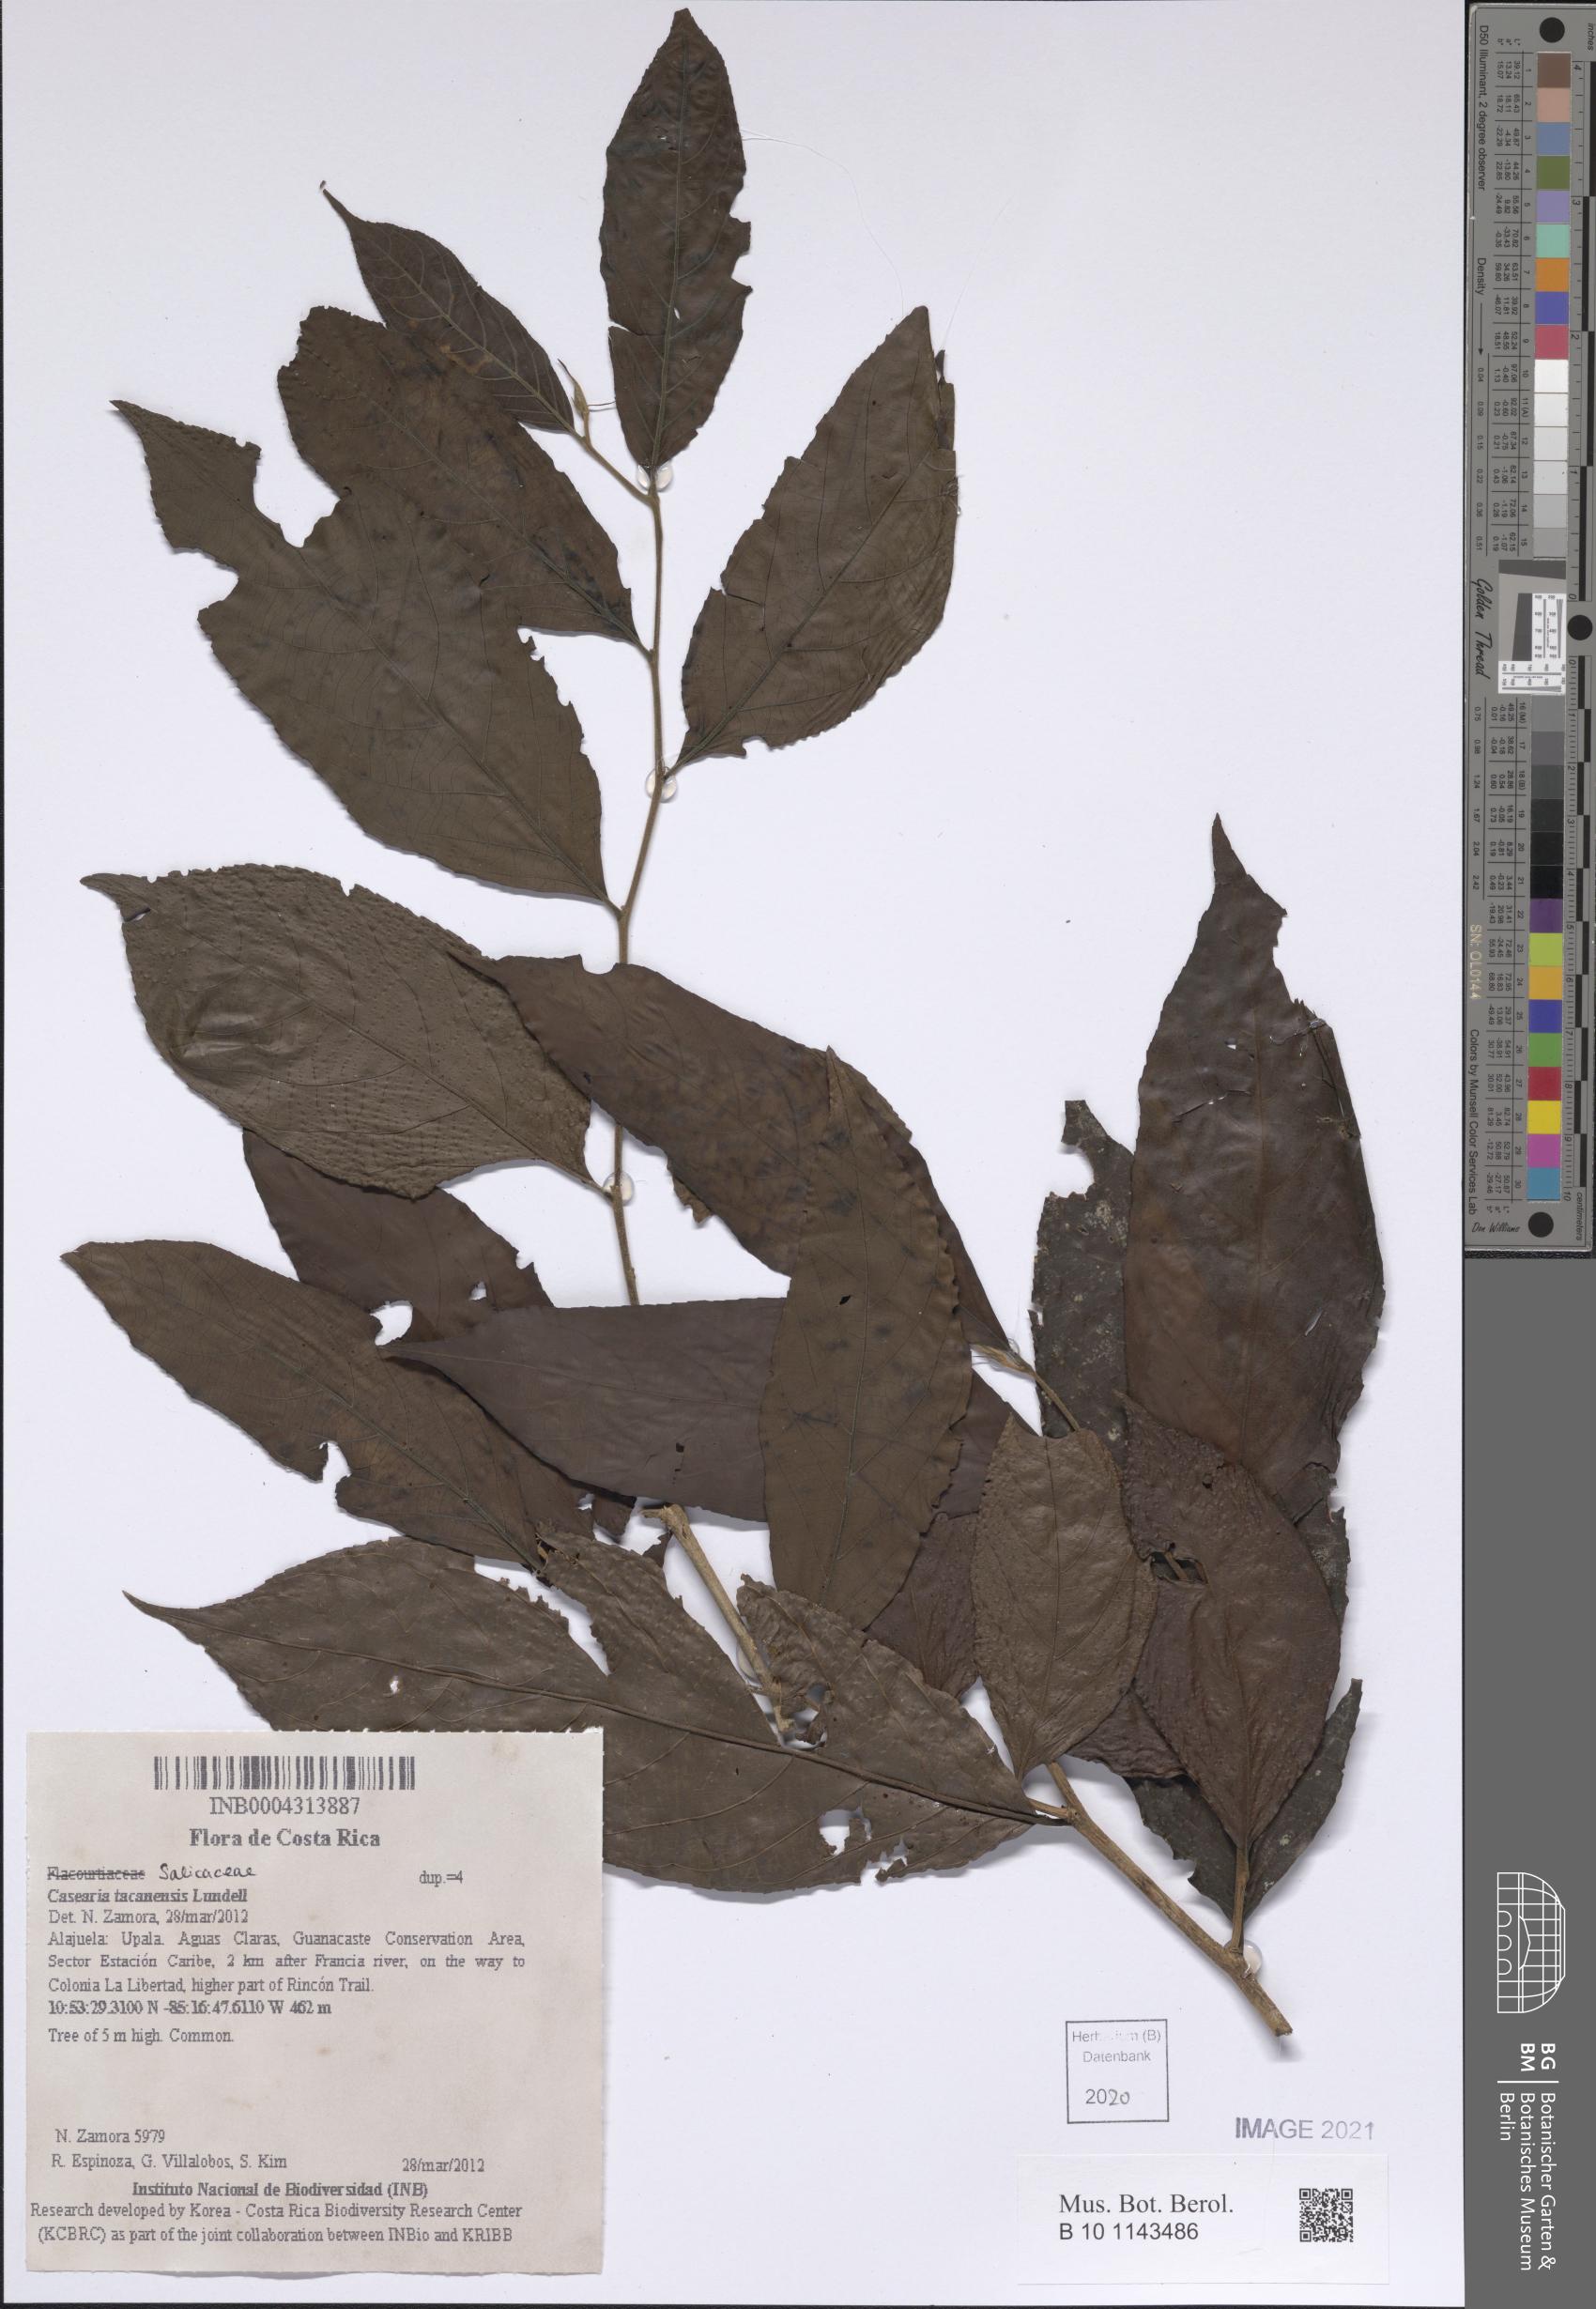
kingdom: Plantae
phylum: Tracheophyta
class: Magnoliopsida
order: Malpighiales
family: Salicaceae
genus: Casearia
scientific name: Casearia tacanensis
